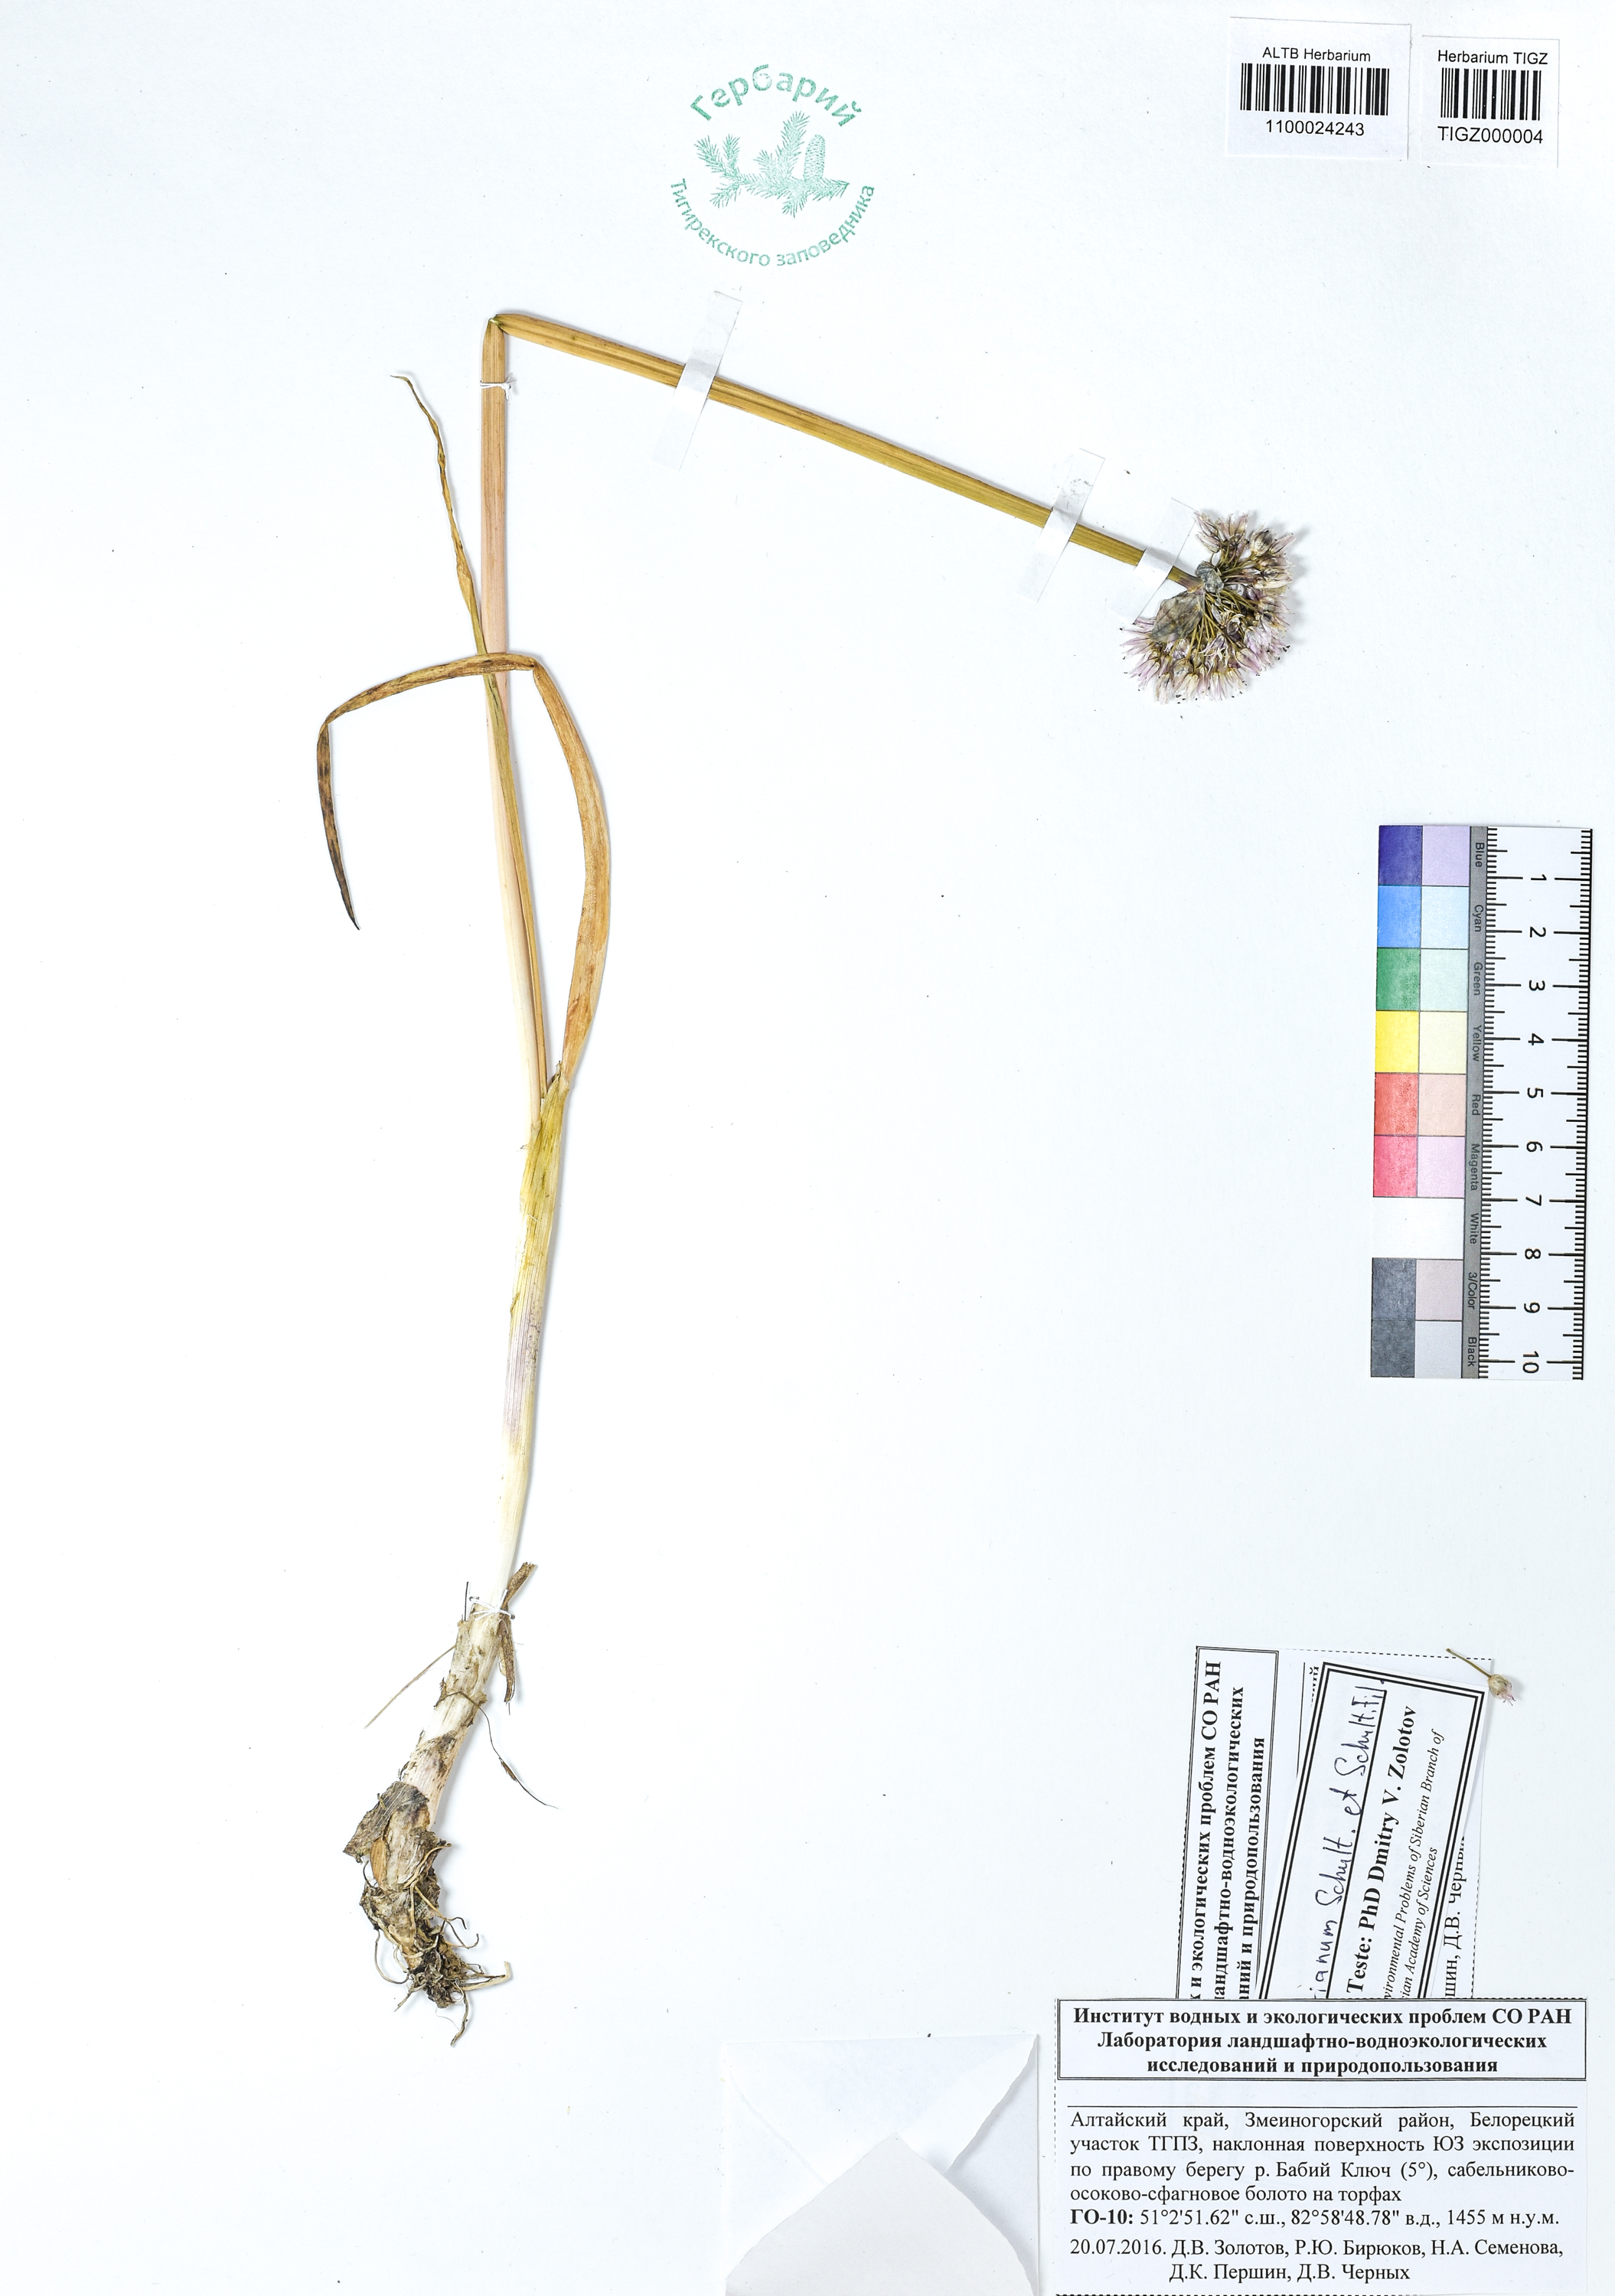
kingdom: Plantae
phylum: Tracheophyta
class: Liliopsida
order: Asparagales
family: Amaryllidaceae
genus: Allium
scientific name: Allium ledebourianum
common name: Ledebour chive
